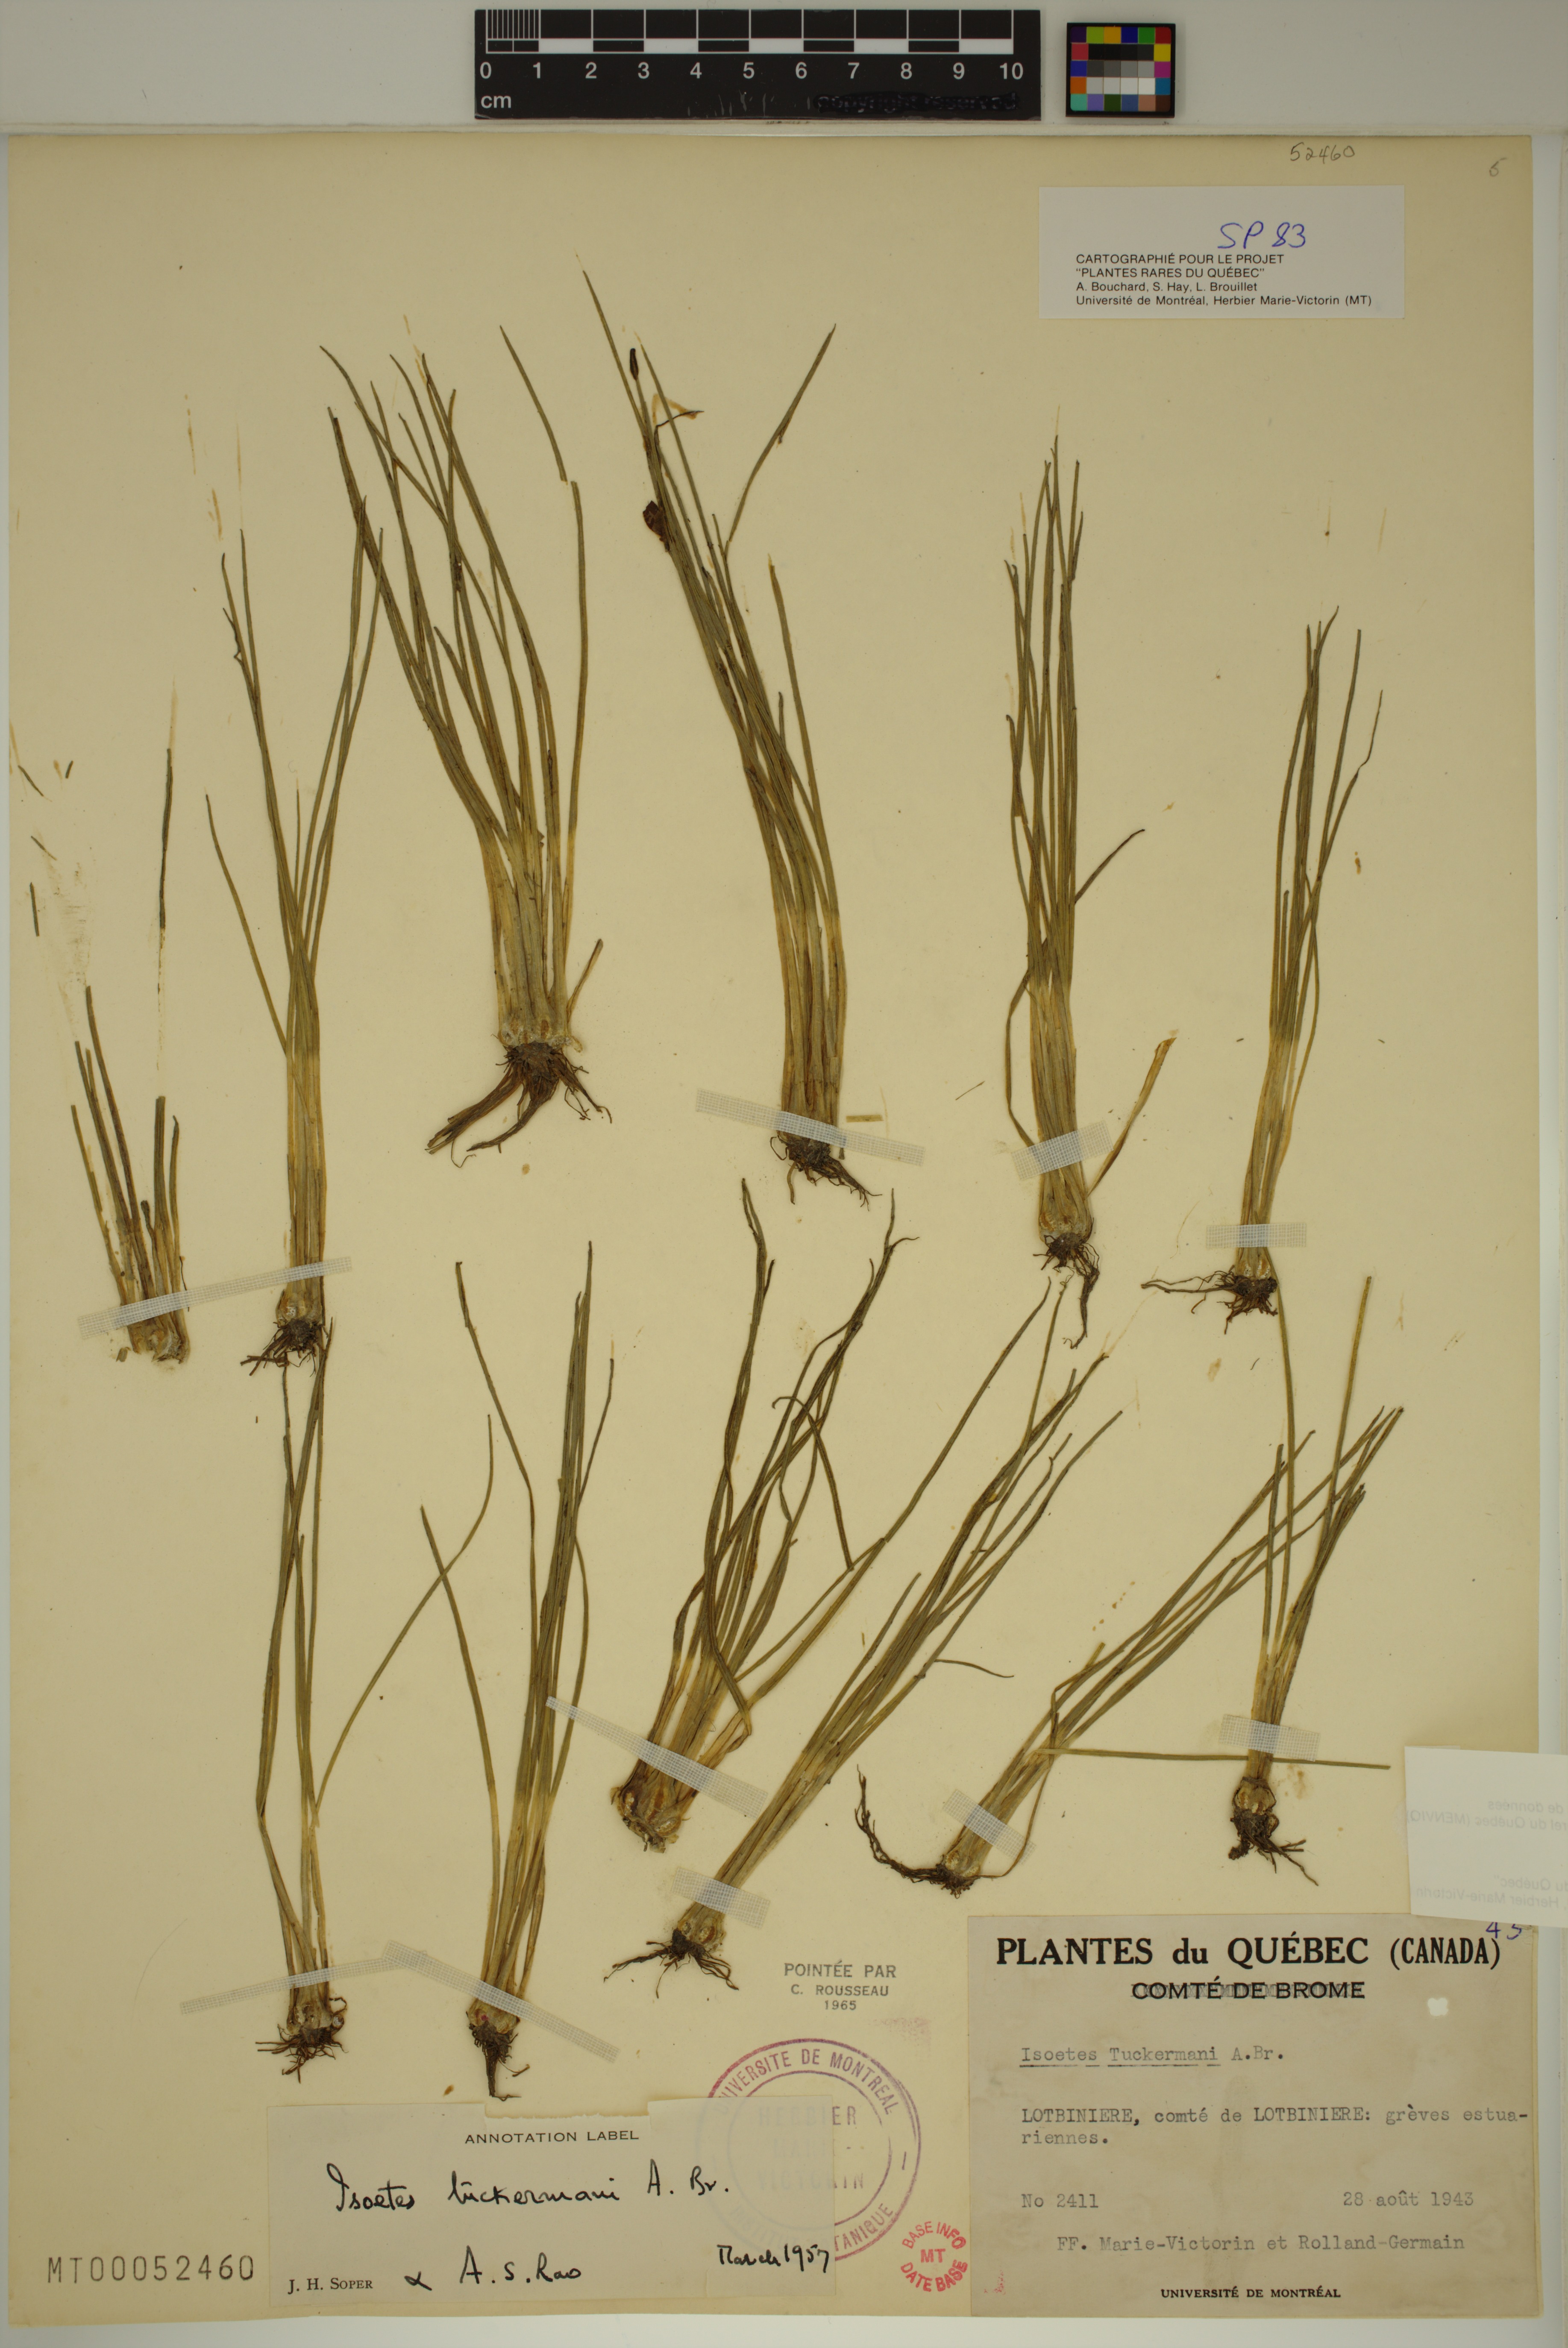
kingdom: Plantae
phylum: Tracheophyta
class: Lycopodiopsida
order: Isoetales
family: Isoetaceae
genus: Isoetes
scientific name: Isoetes laurentiana
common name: St. lawrence quillwort
